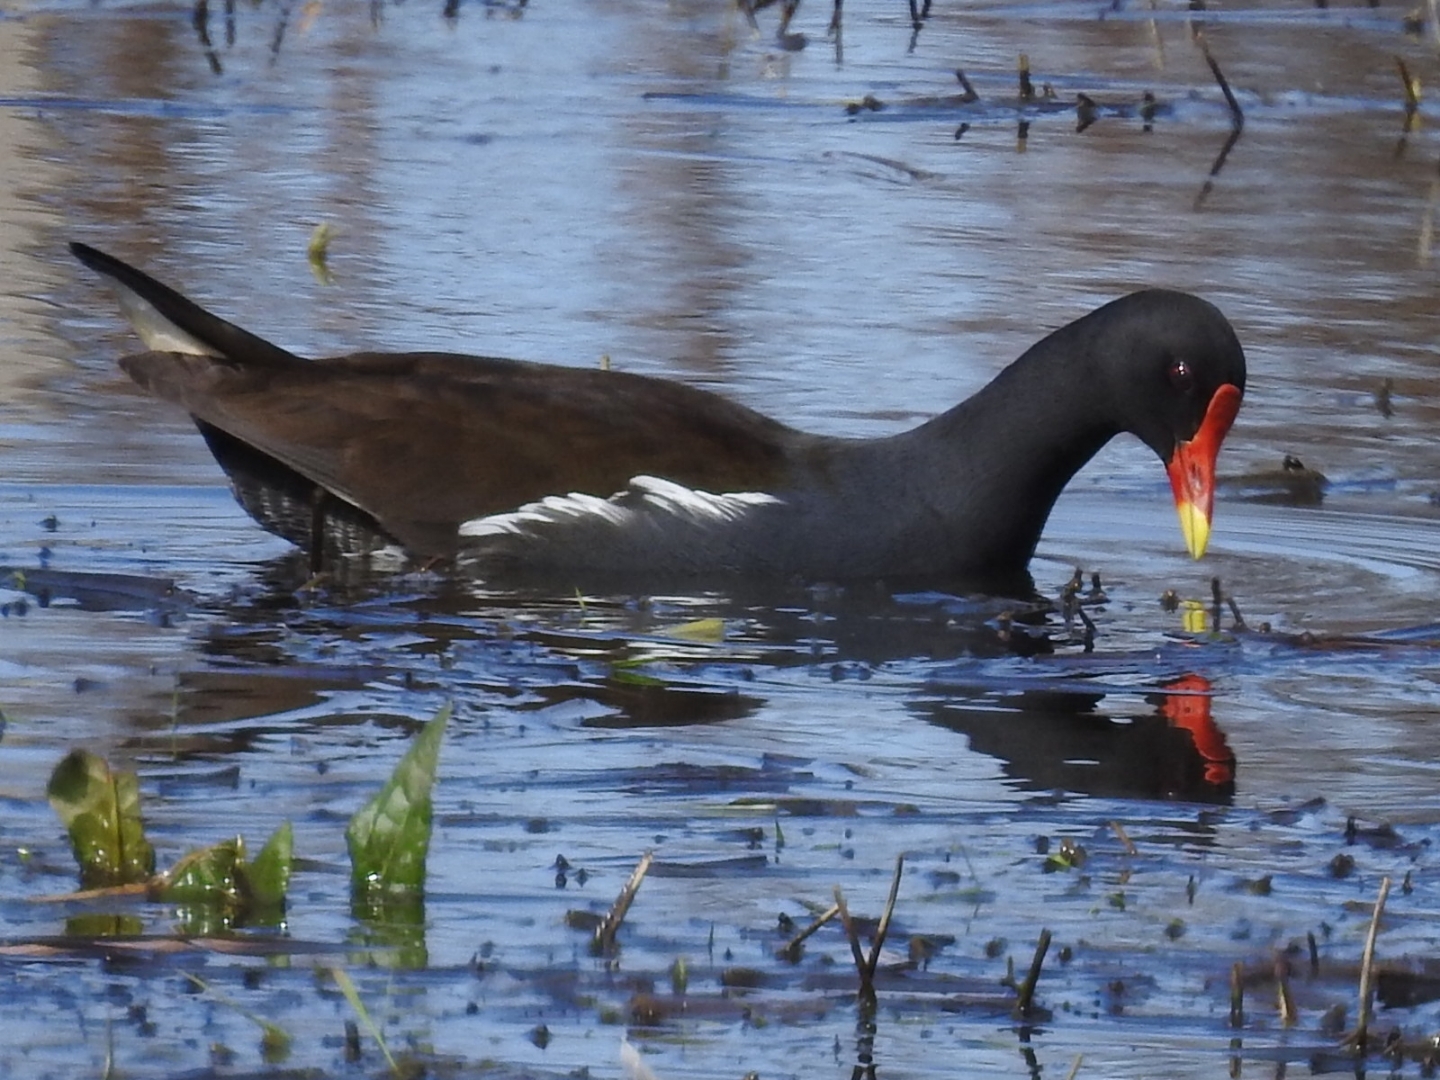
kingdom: Animalia
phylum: Chordata
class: Aves
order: Gruiformes
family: Rallidae
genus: Gallinula
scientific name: Gallinula chloropus
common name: Grønbenet rørhøne
